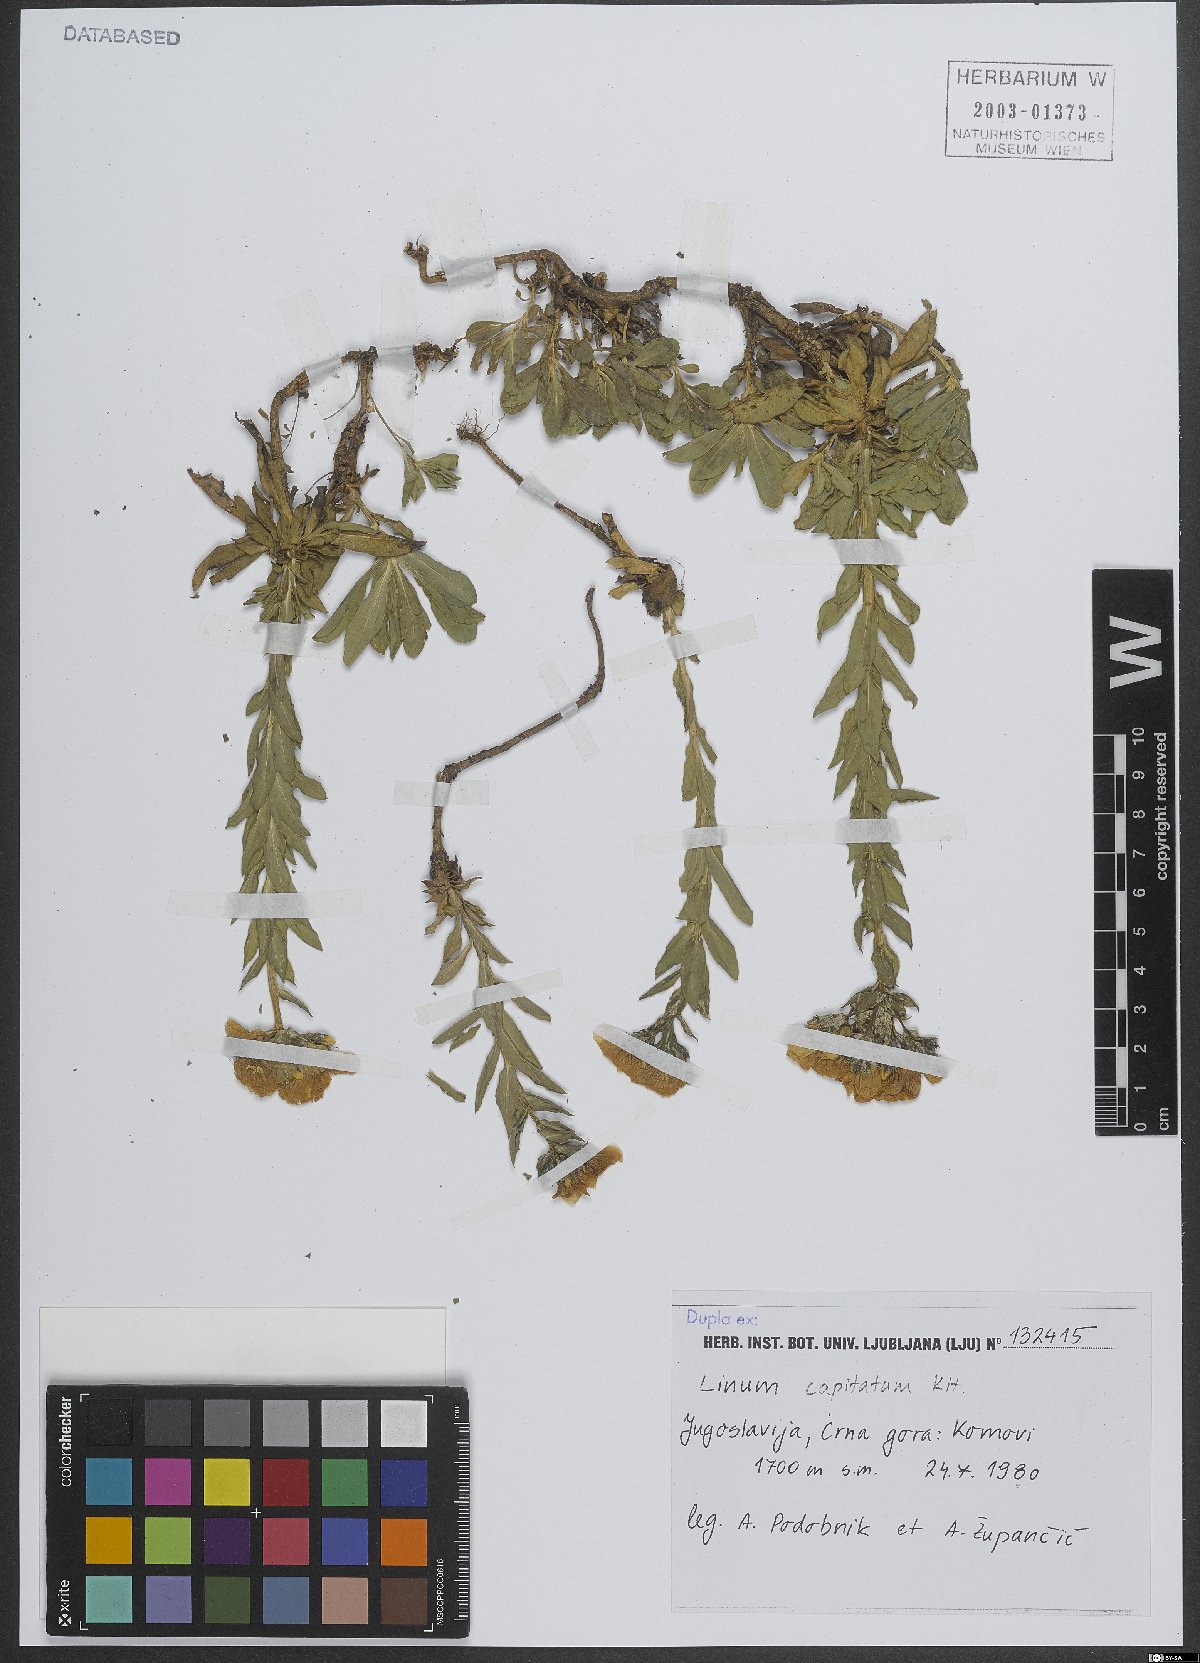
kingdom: Plantae
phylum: Tracheophyta
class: Magnoliopsida
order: Malpighiales
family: Linaceae
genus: Linum
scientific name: Linum capitatum
